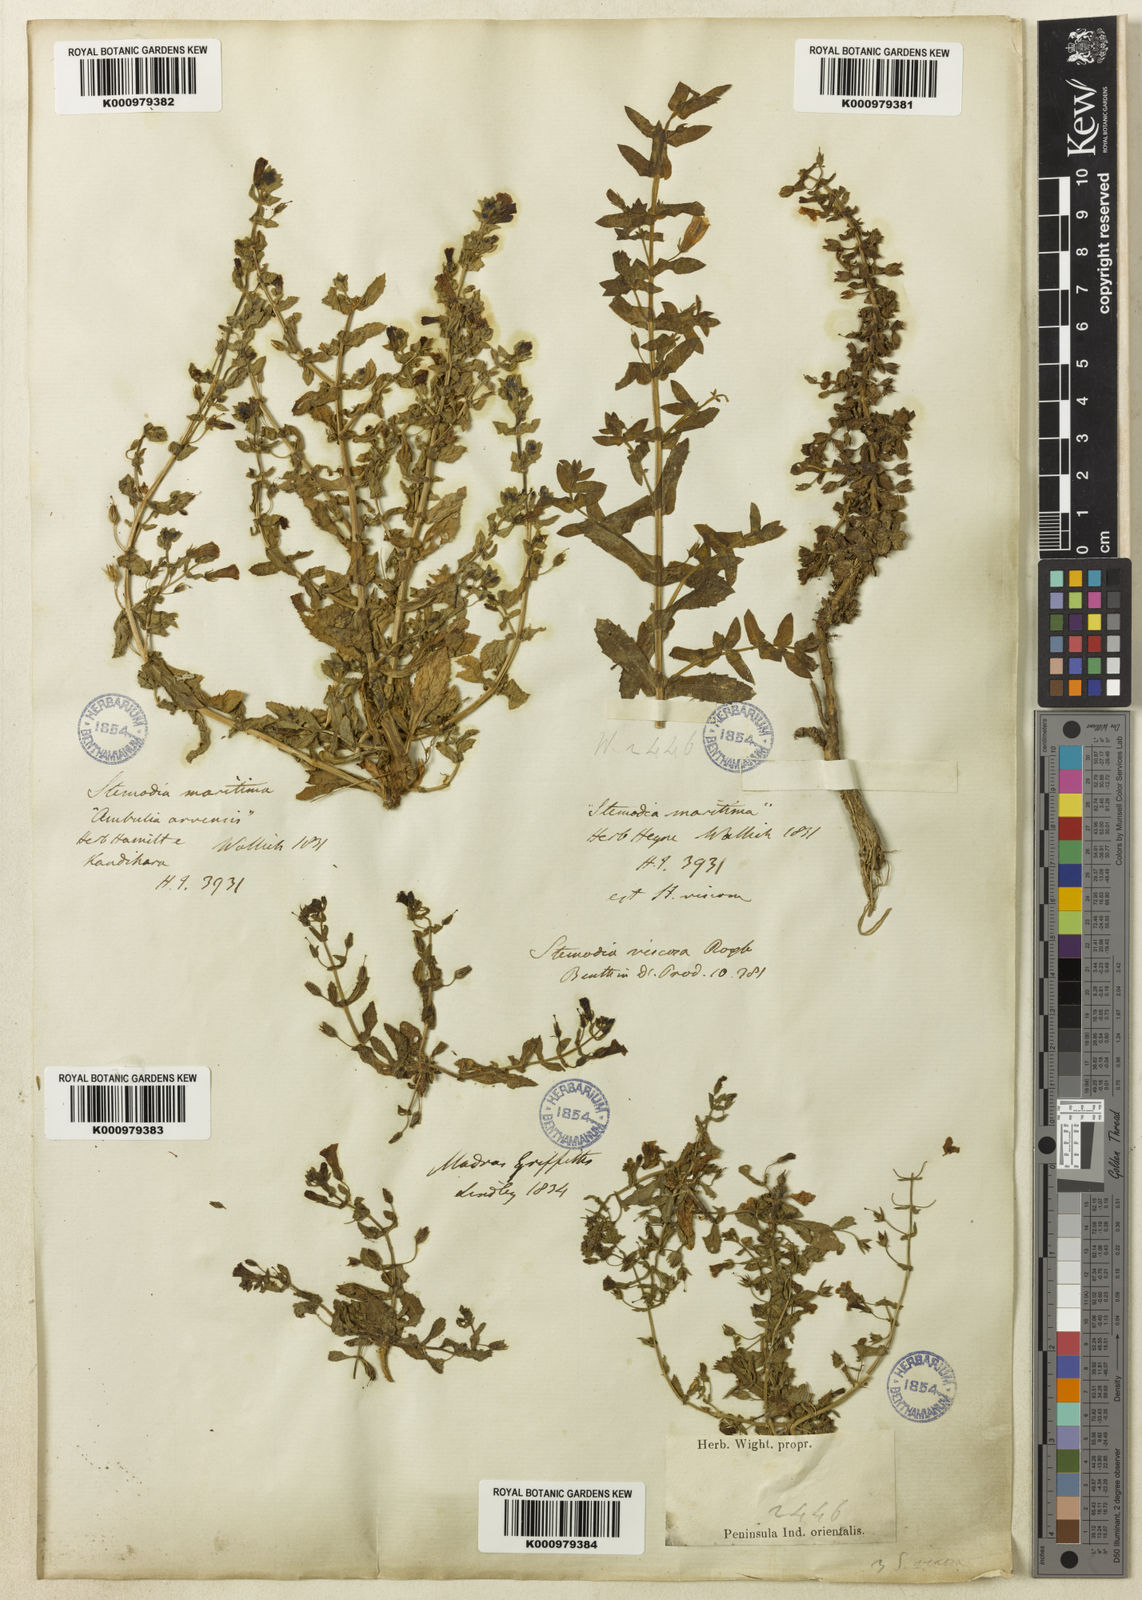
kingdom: Plantae
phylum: Tracheophyta
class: Magnoliopsida
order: Lamiales
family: Plantaginaceae
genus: Stemodia
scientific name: Stemodia viscosa
